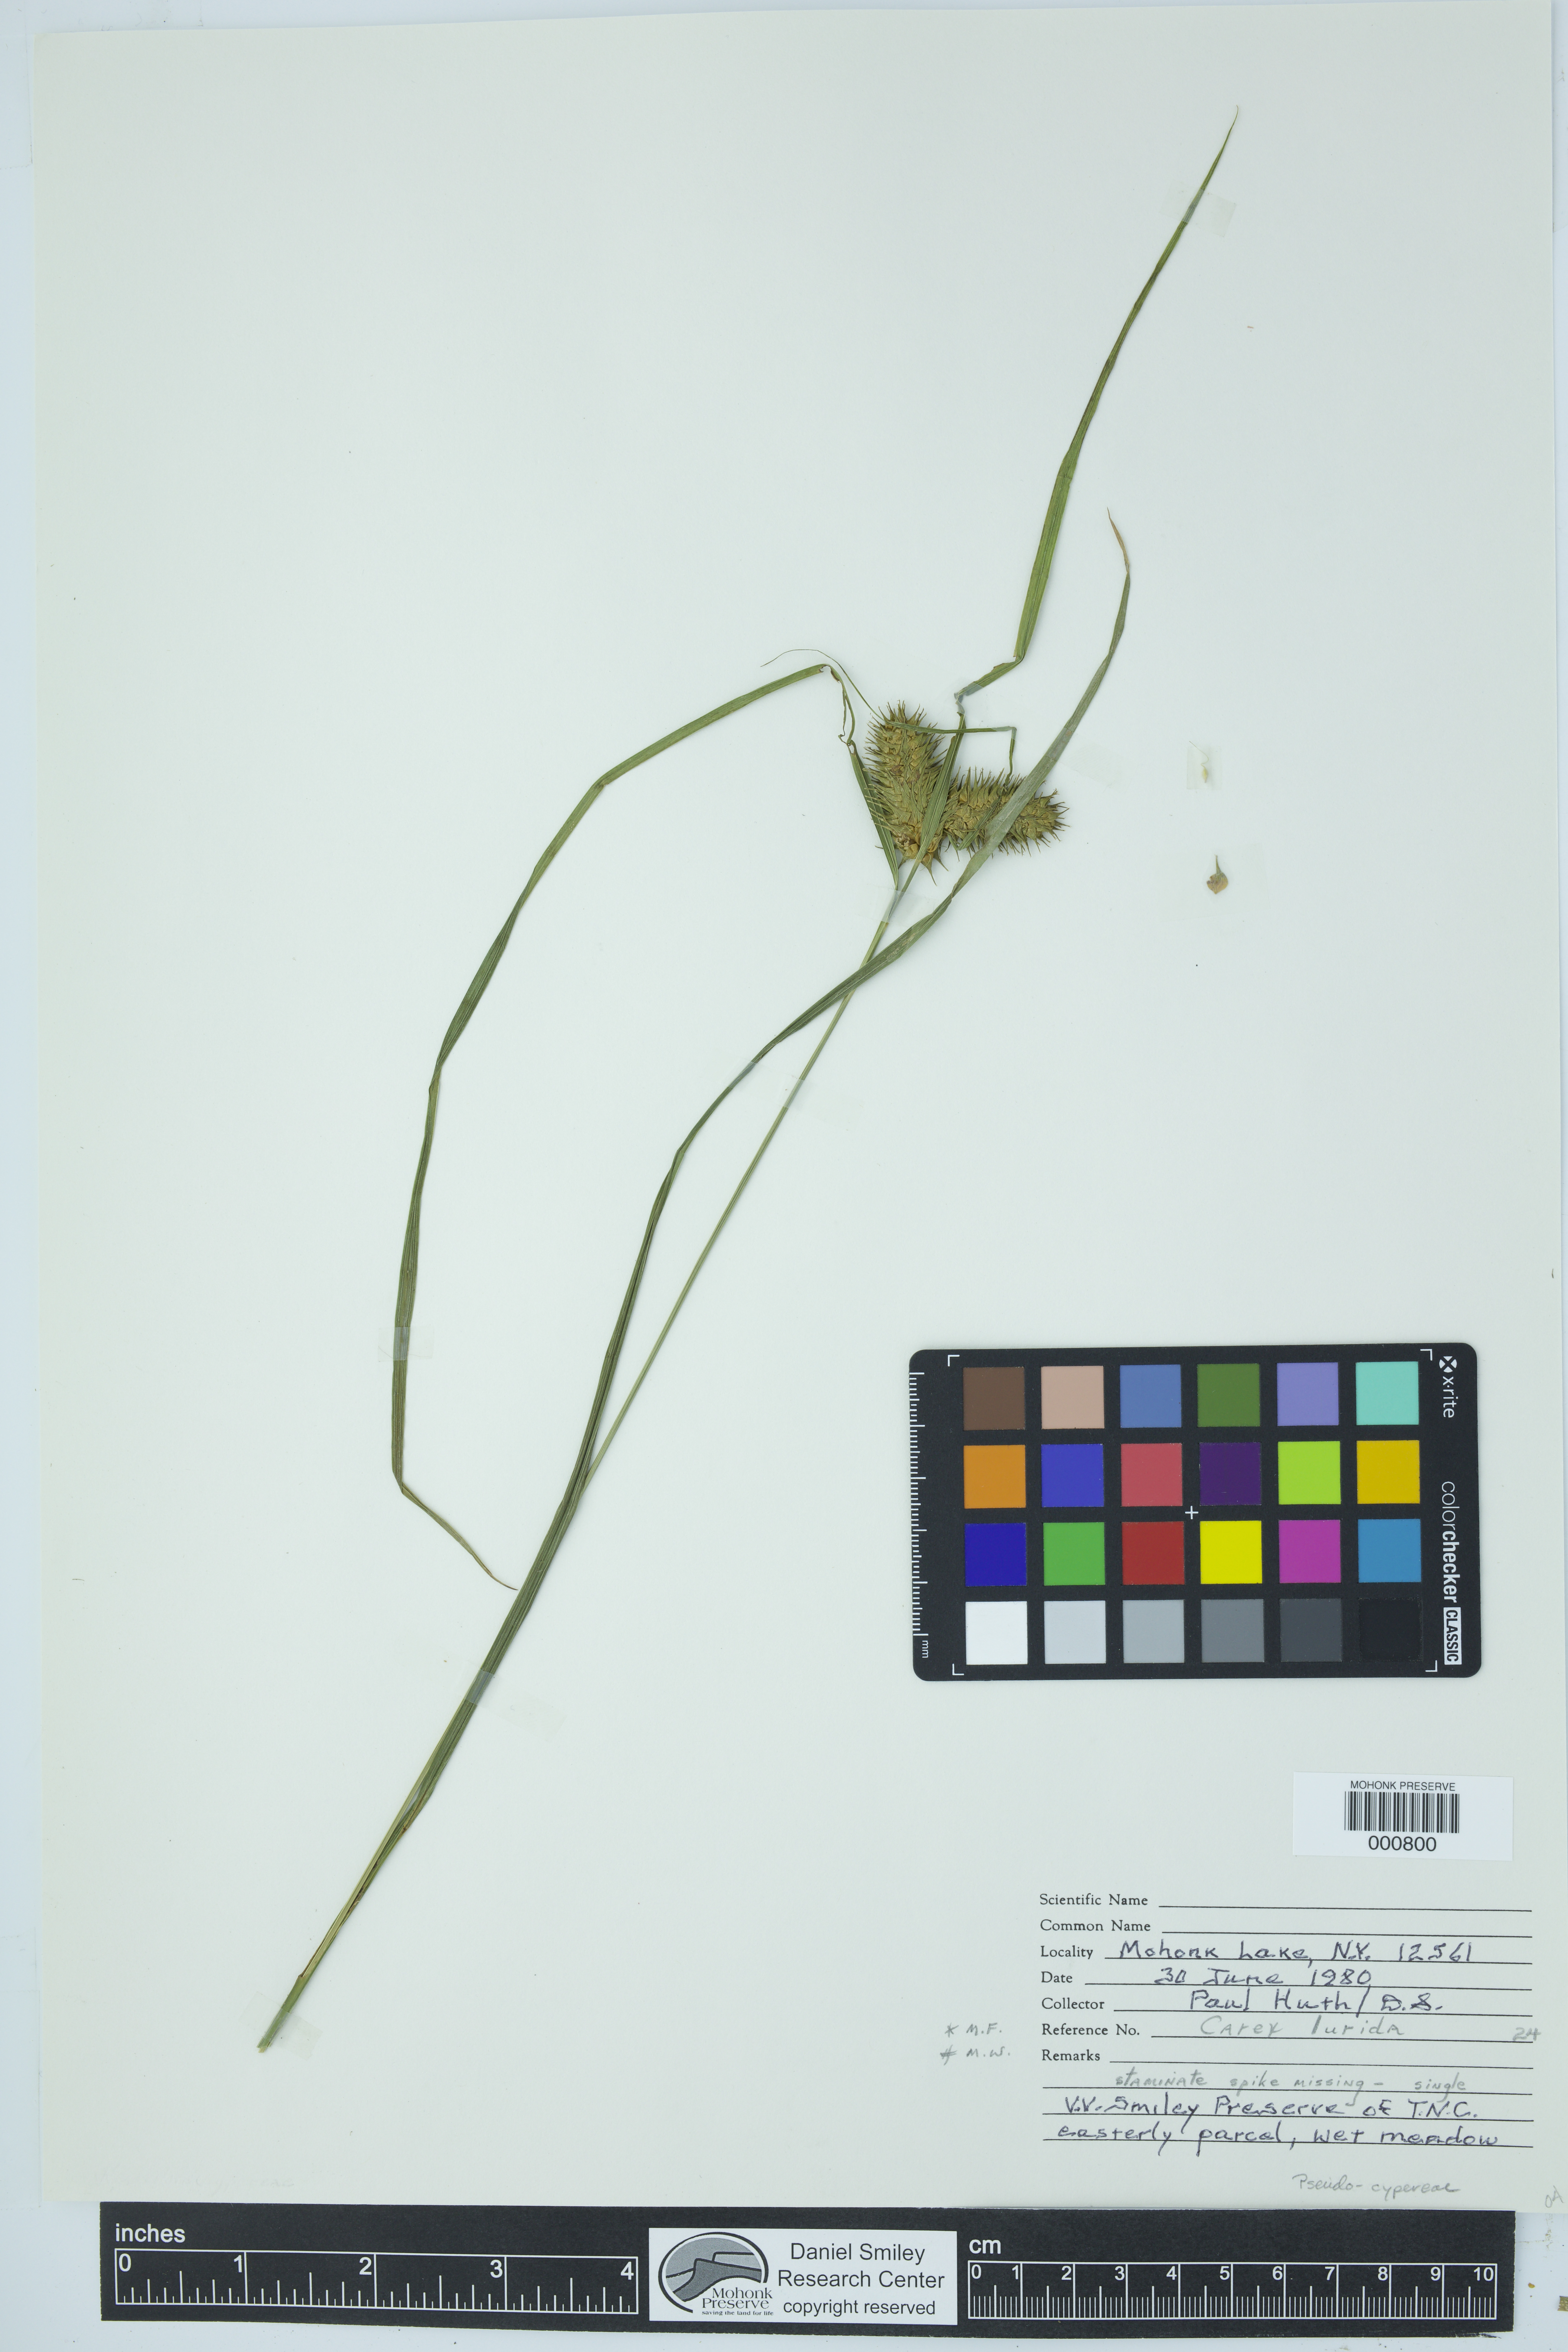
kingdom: Plantae
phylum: Tracheophyta
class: Liliopsida
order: Poales
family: Cyperaceae
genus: Carex
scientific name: Carex lurida
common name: Sallow sedge
